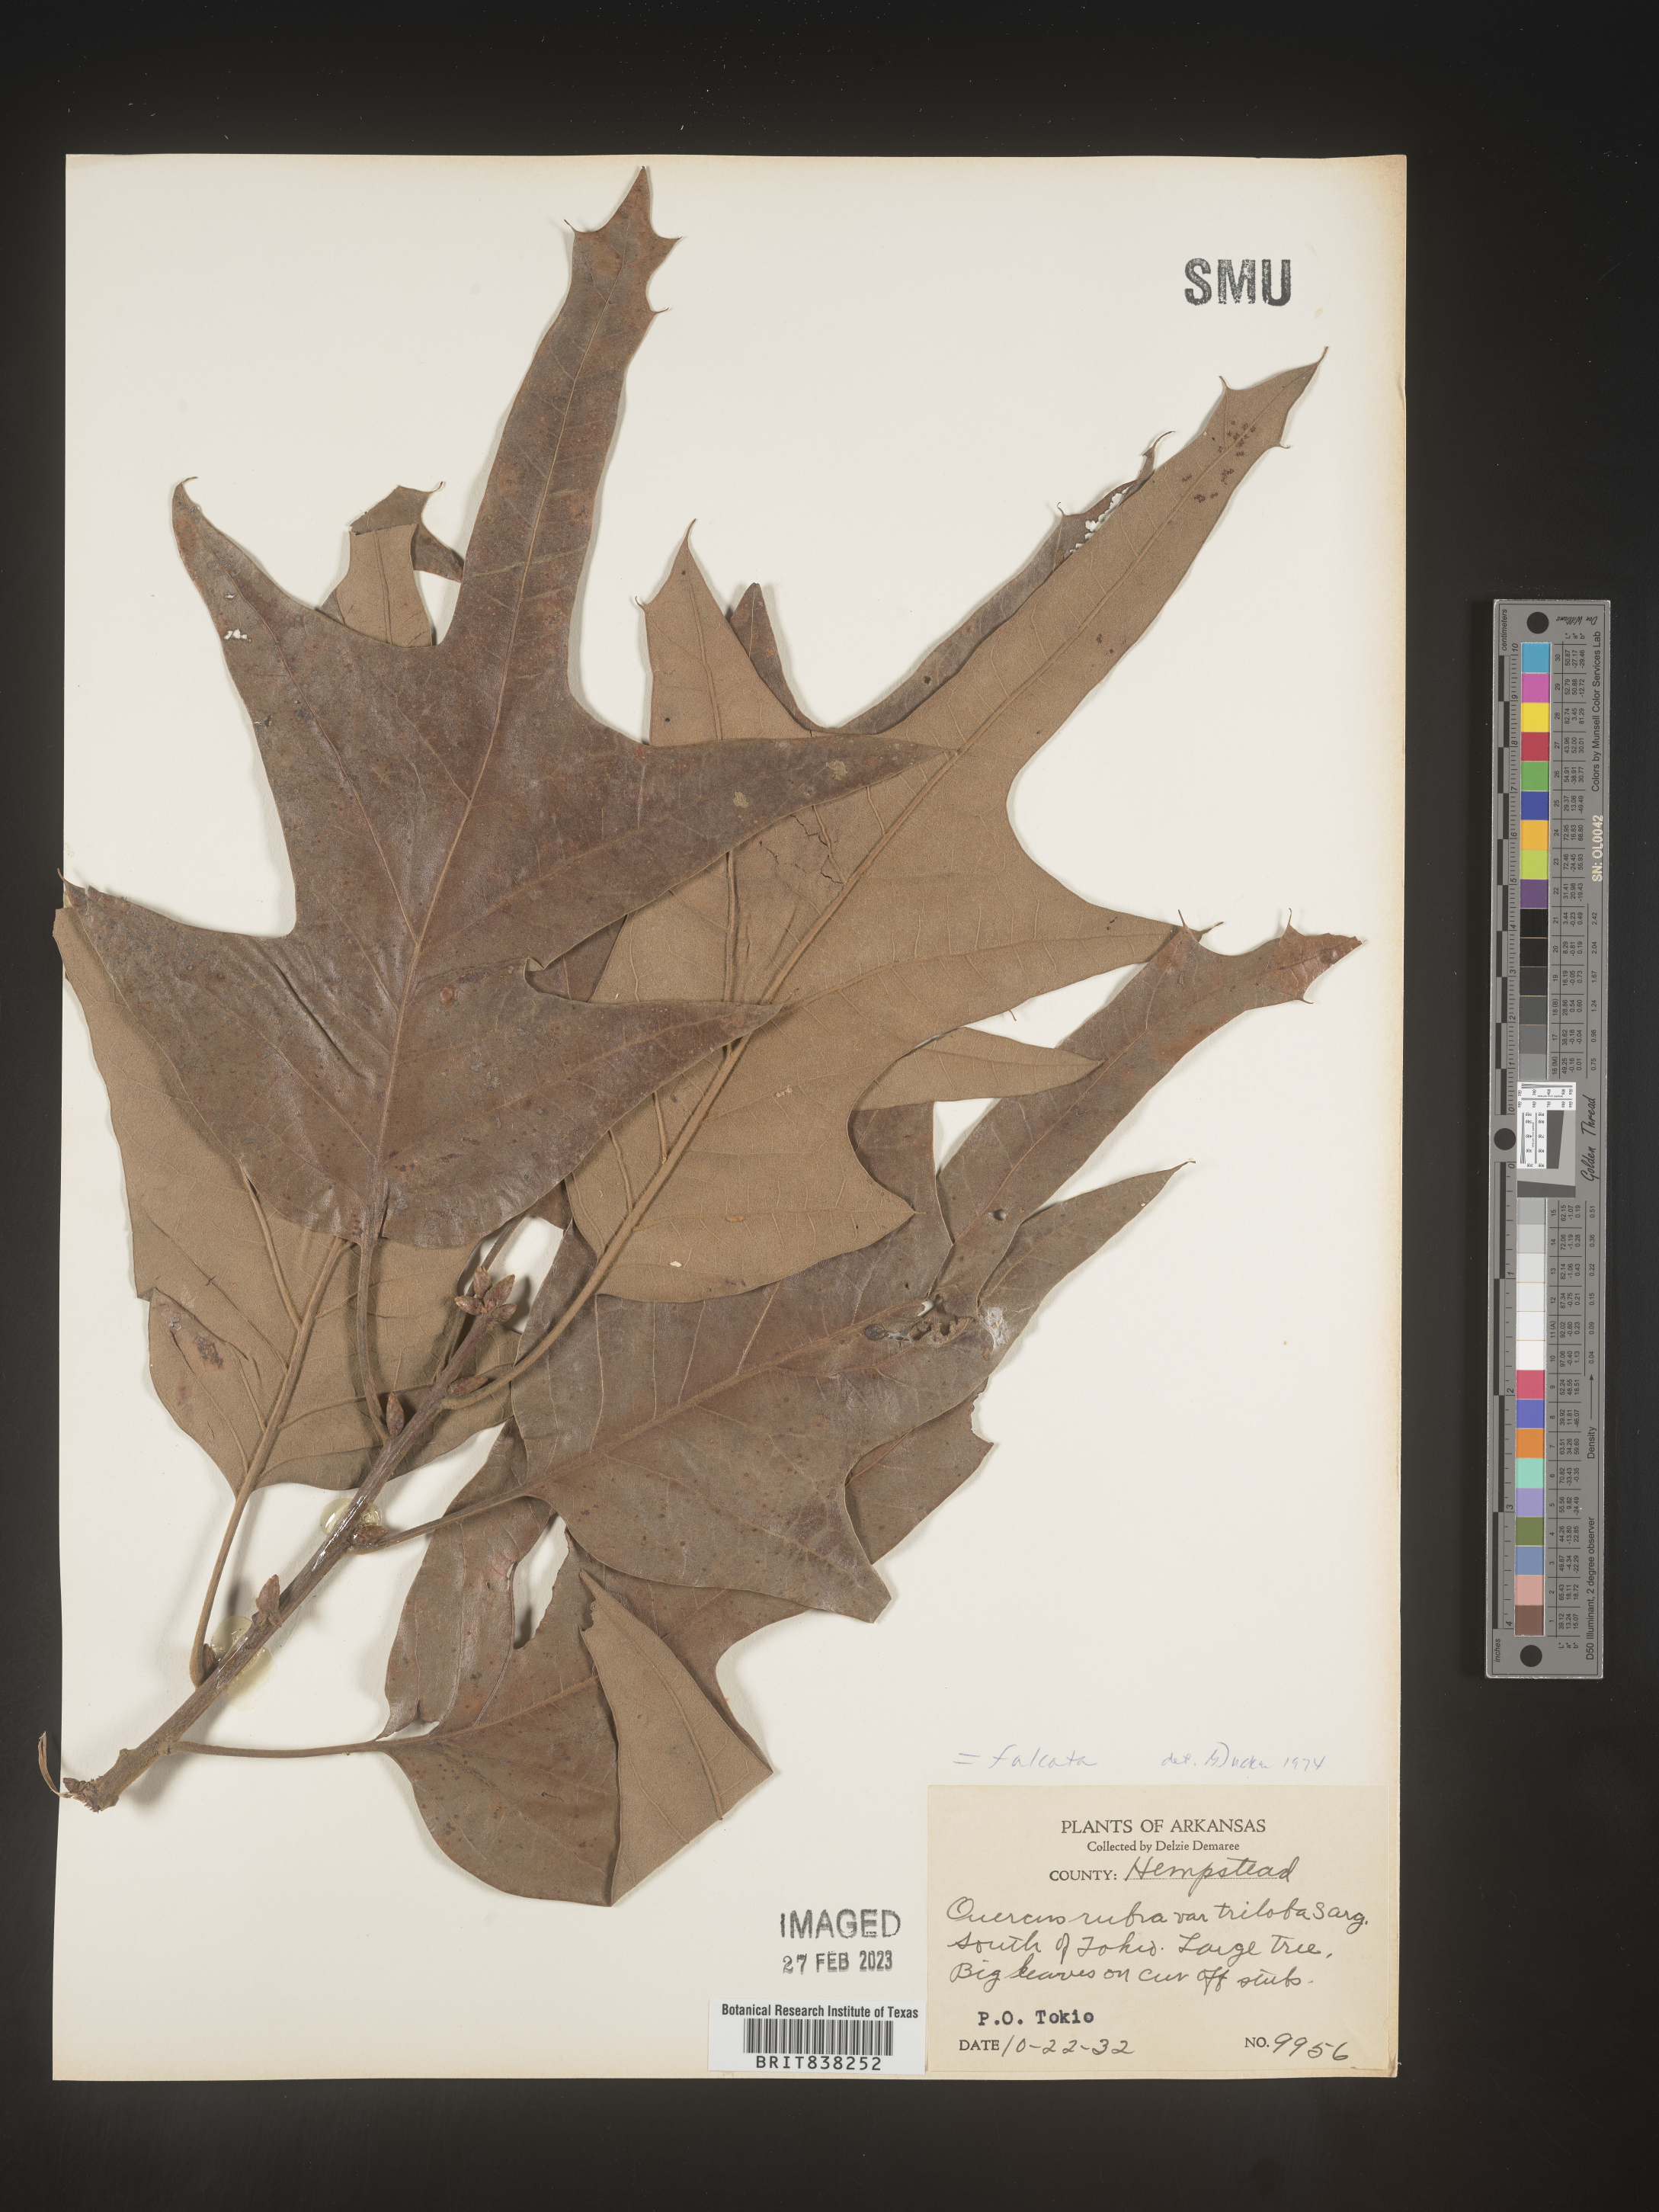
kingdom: Plantae
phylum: Tracheophyta
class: Magnoliopsida
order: Fagales
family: Fagaceae
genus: Quercus
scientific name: Quercus falcata
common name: Southern red oak
